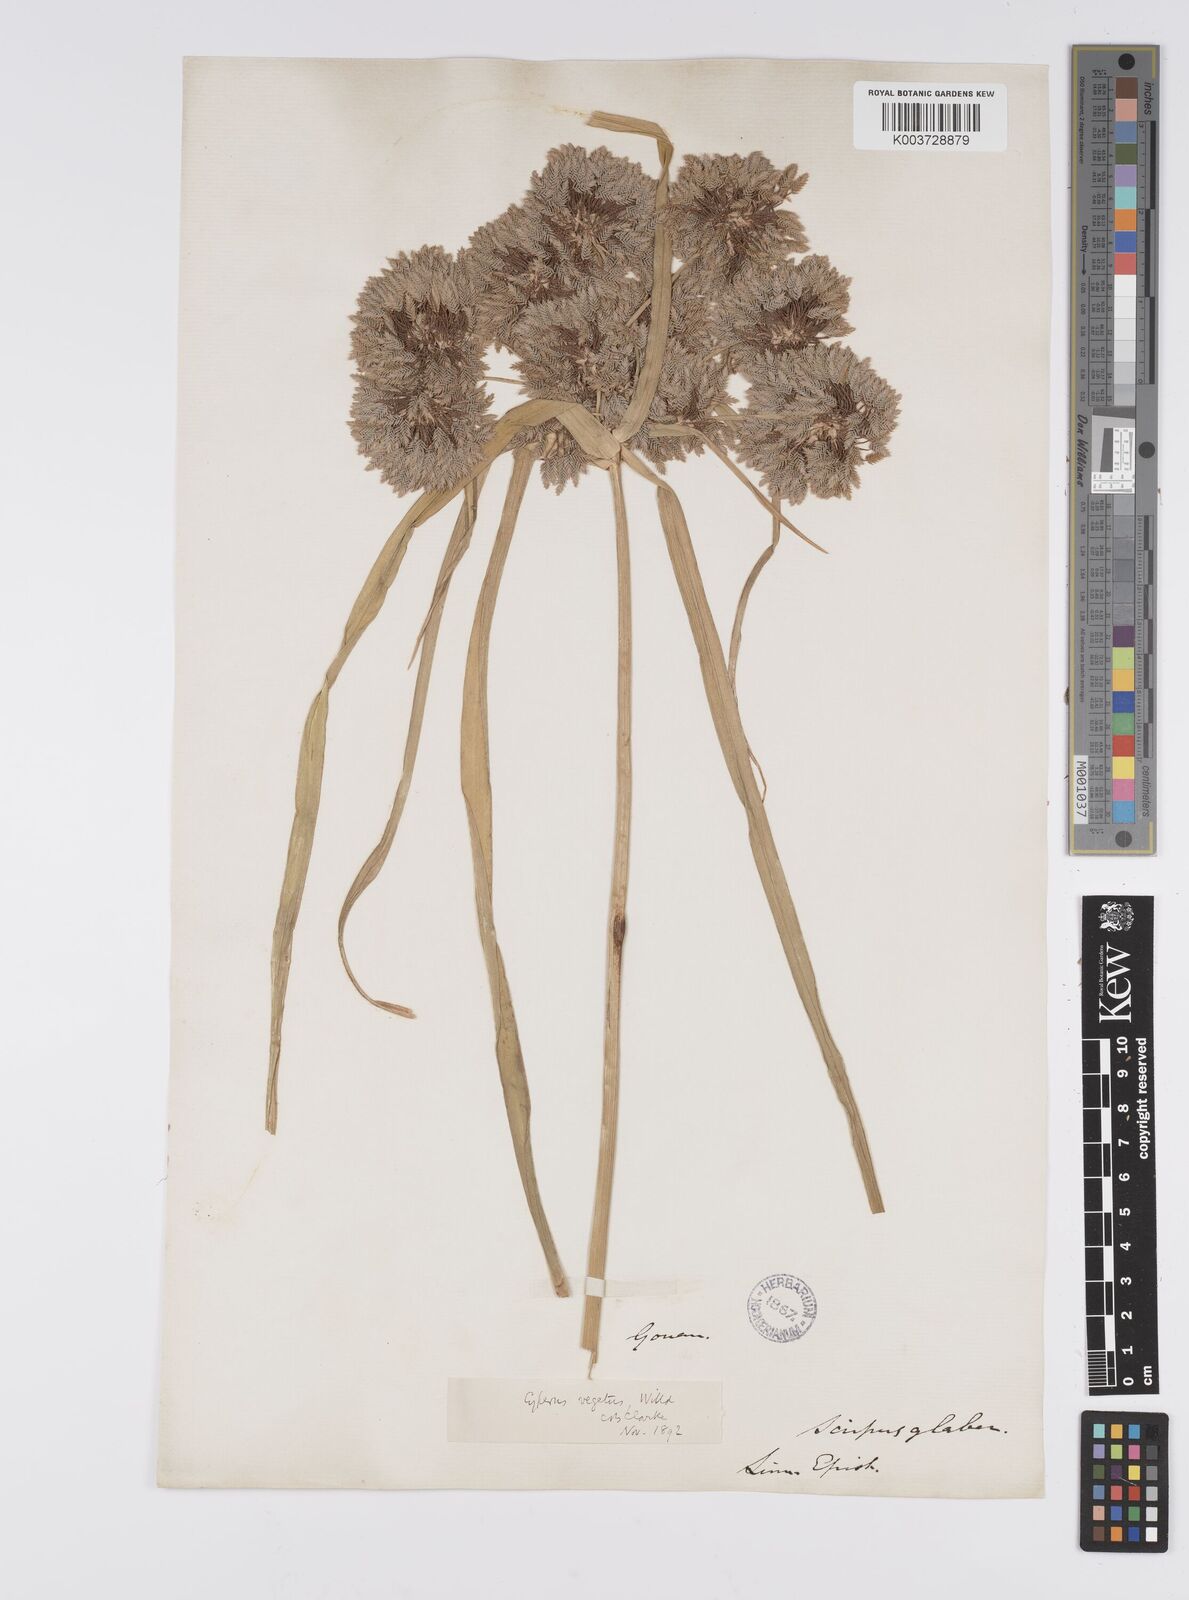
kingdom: Plantae
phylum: Tracheophyta
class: Liliopsida
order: Poales
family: Cyperaceae
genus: Cyperus
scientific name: Cyperus eragrostis
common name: Tall flatsedge
